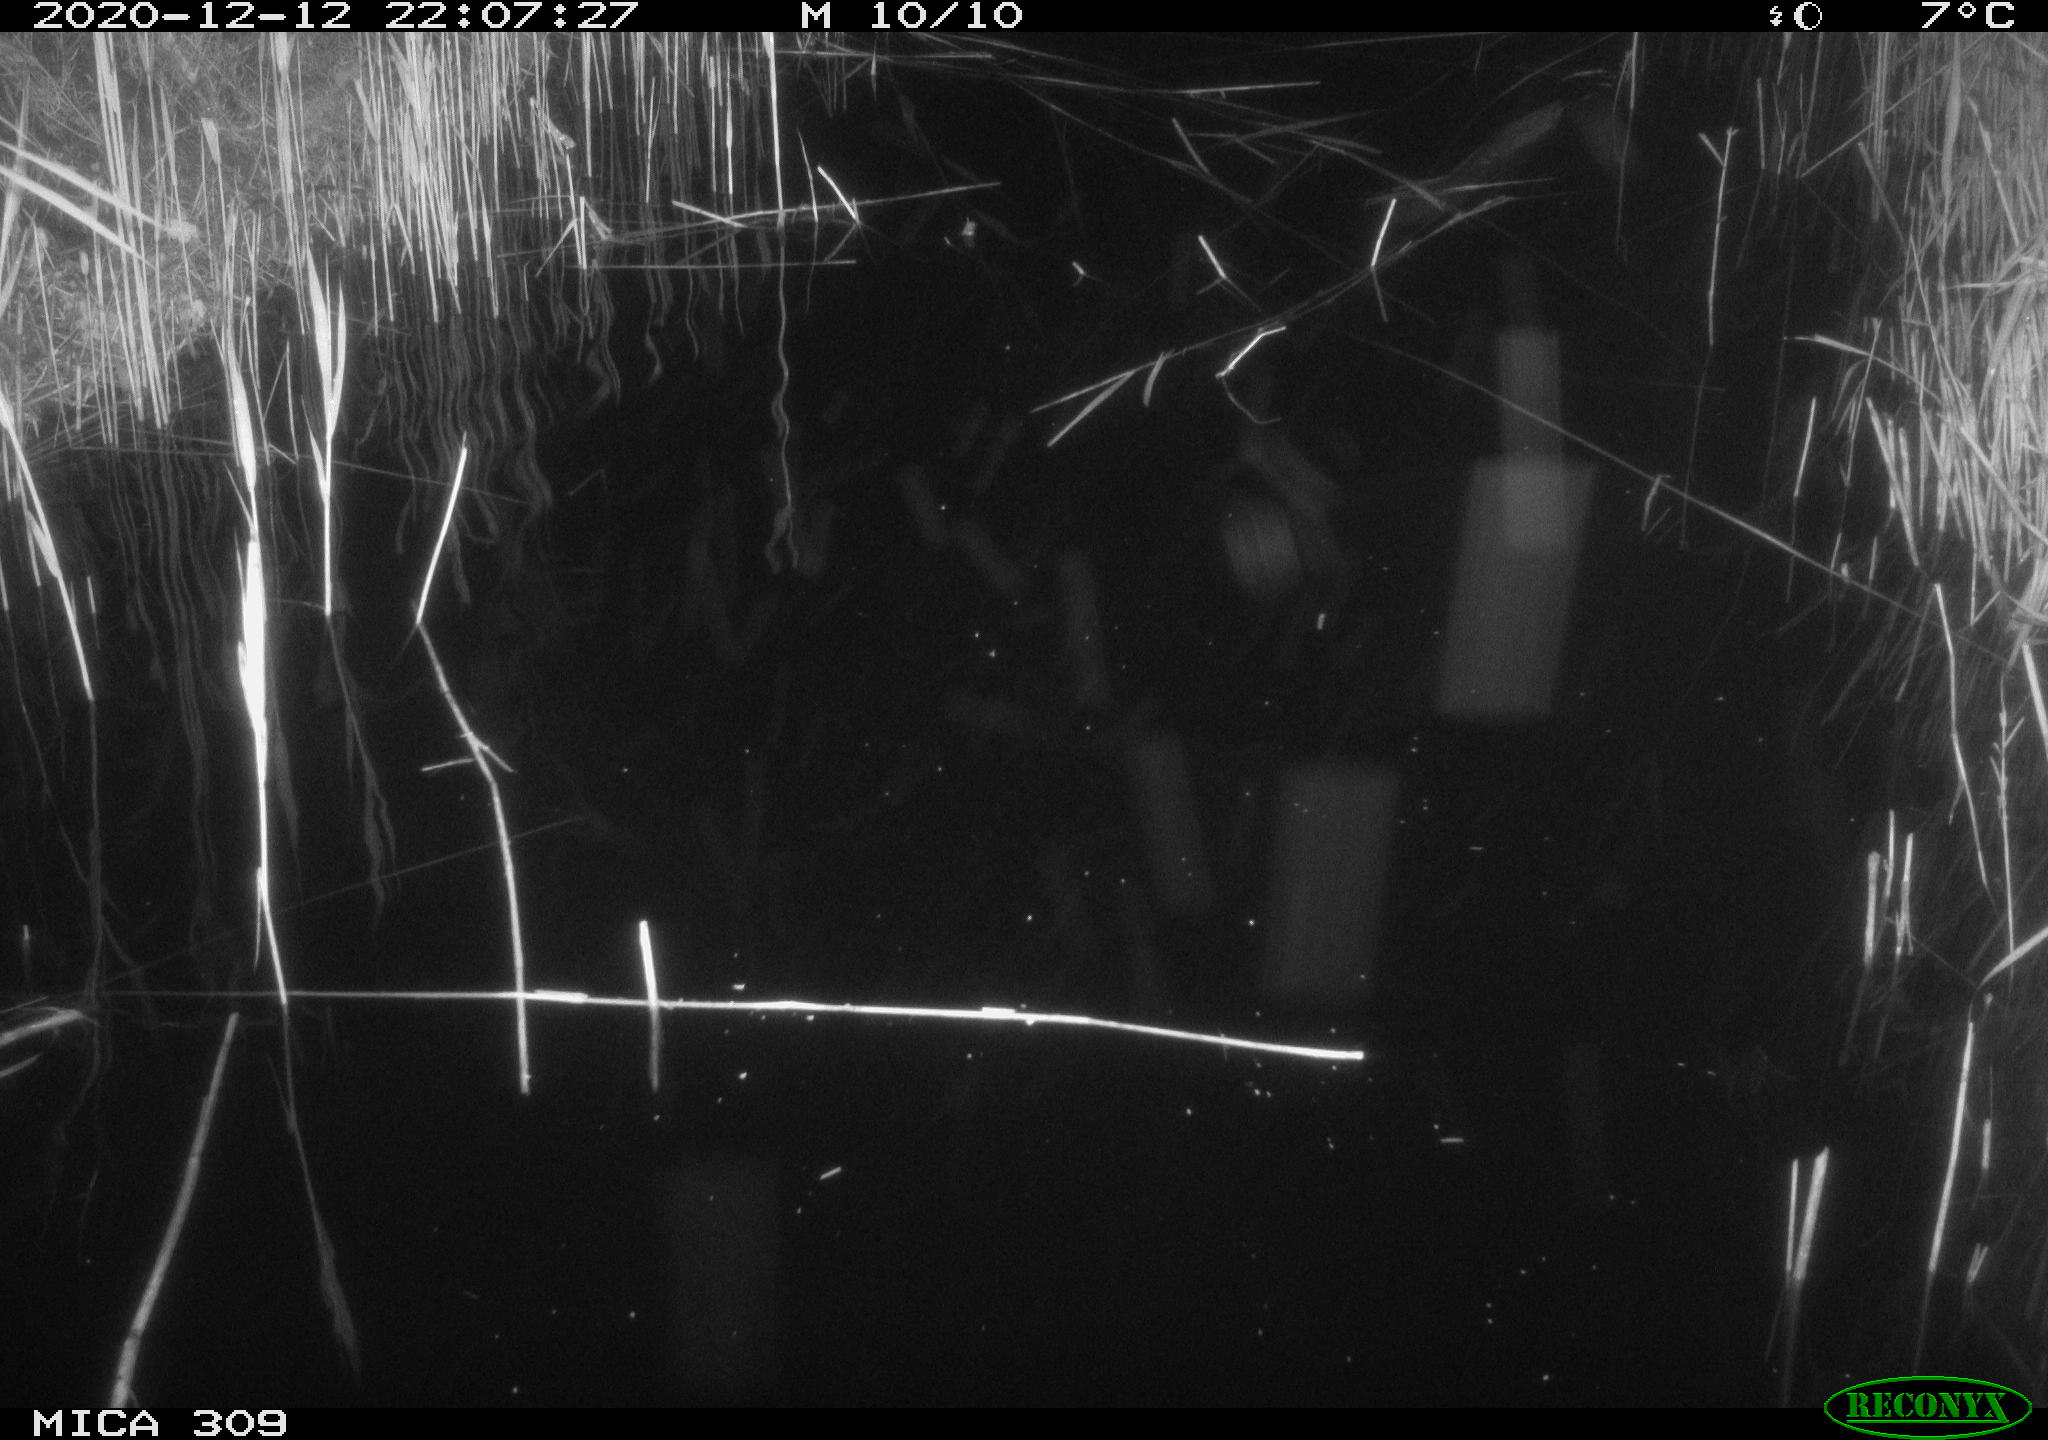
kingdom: Animalia
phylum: Chordata
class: Mammalia
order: Rodentia
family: Muridae
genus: Rattus
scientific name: Rattus norvegicus
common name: Brown rat
